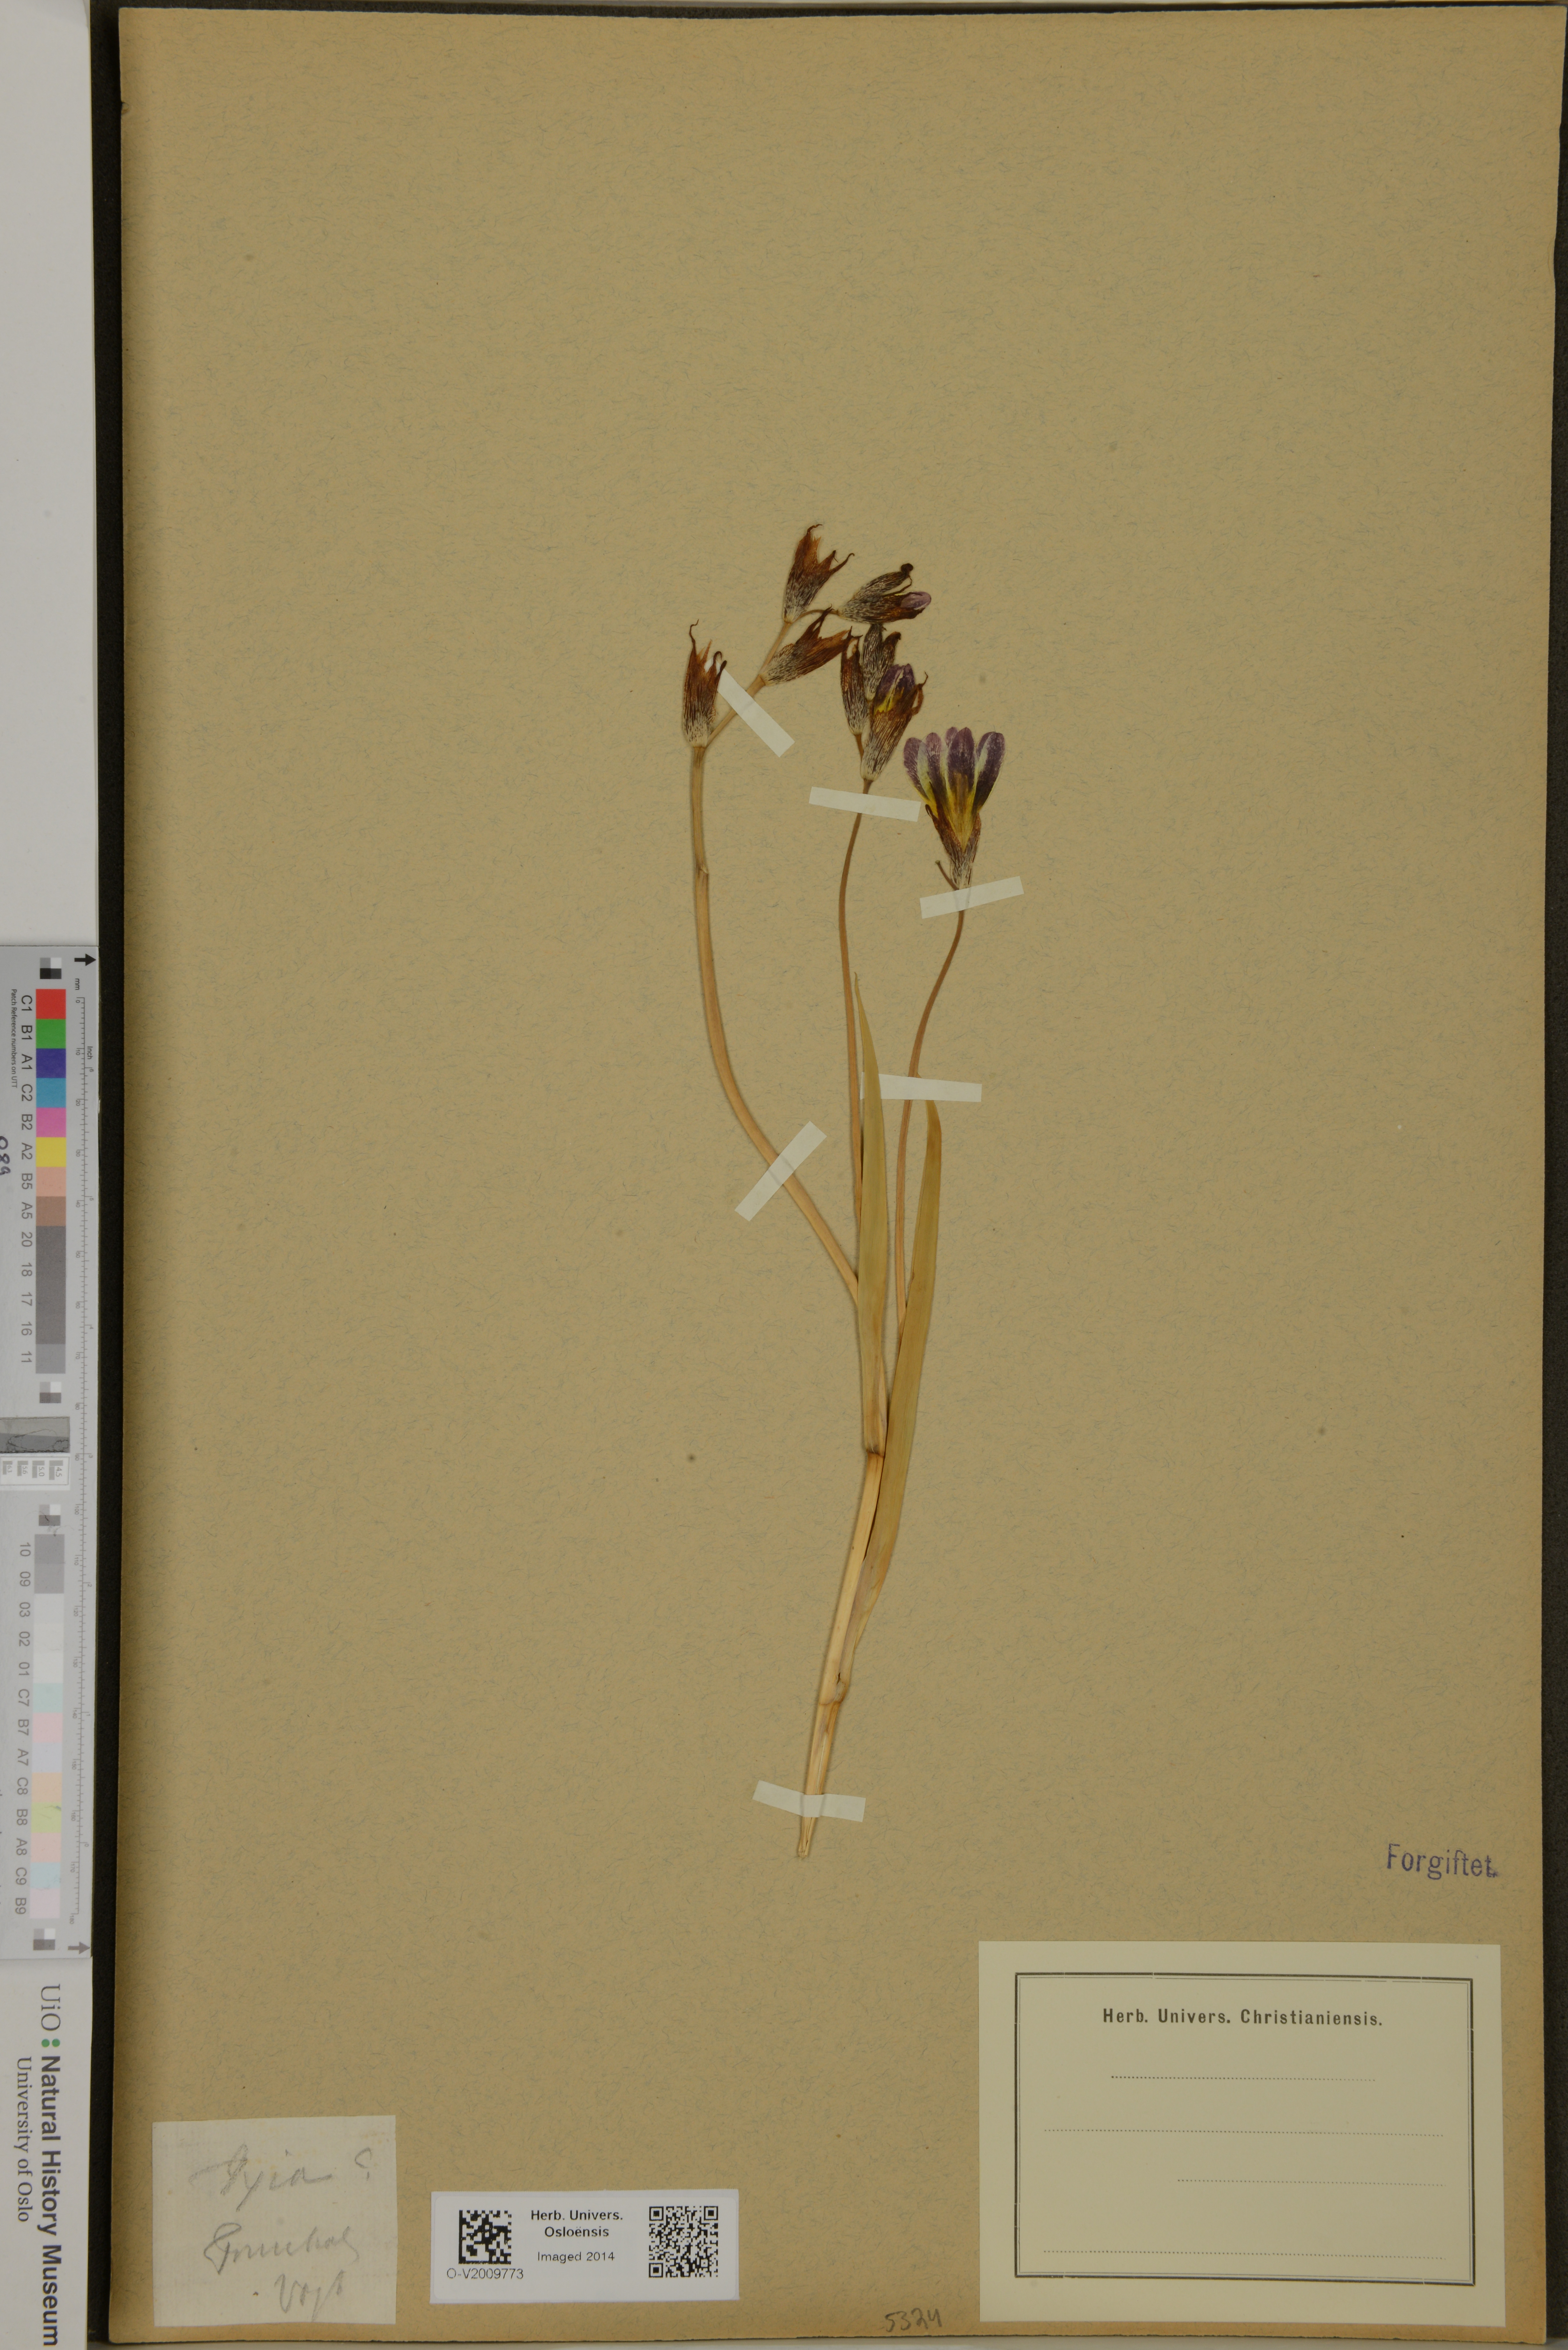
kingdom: Plantae
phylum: Tracheophyta
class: Liliopsida
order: Asparagales
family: Iridaceae
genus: Ixia
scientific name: Ixia
